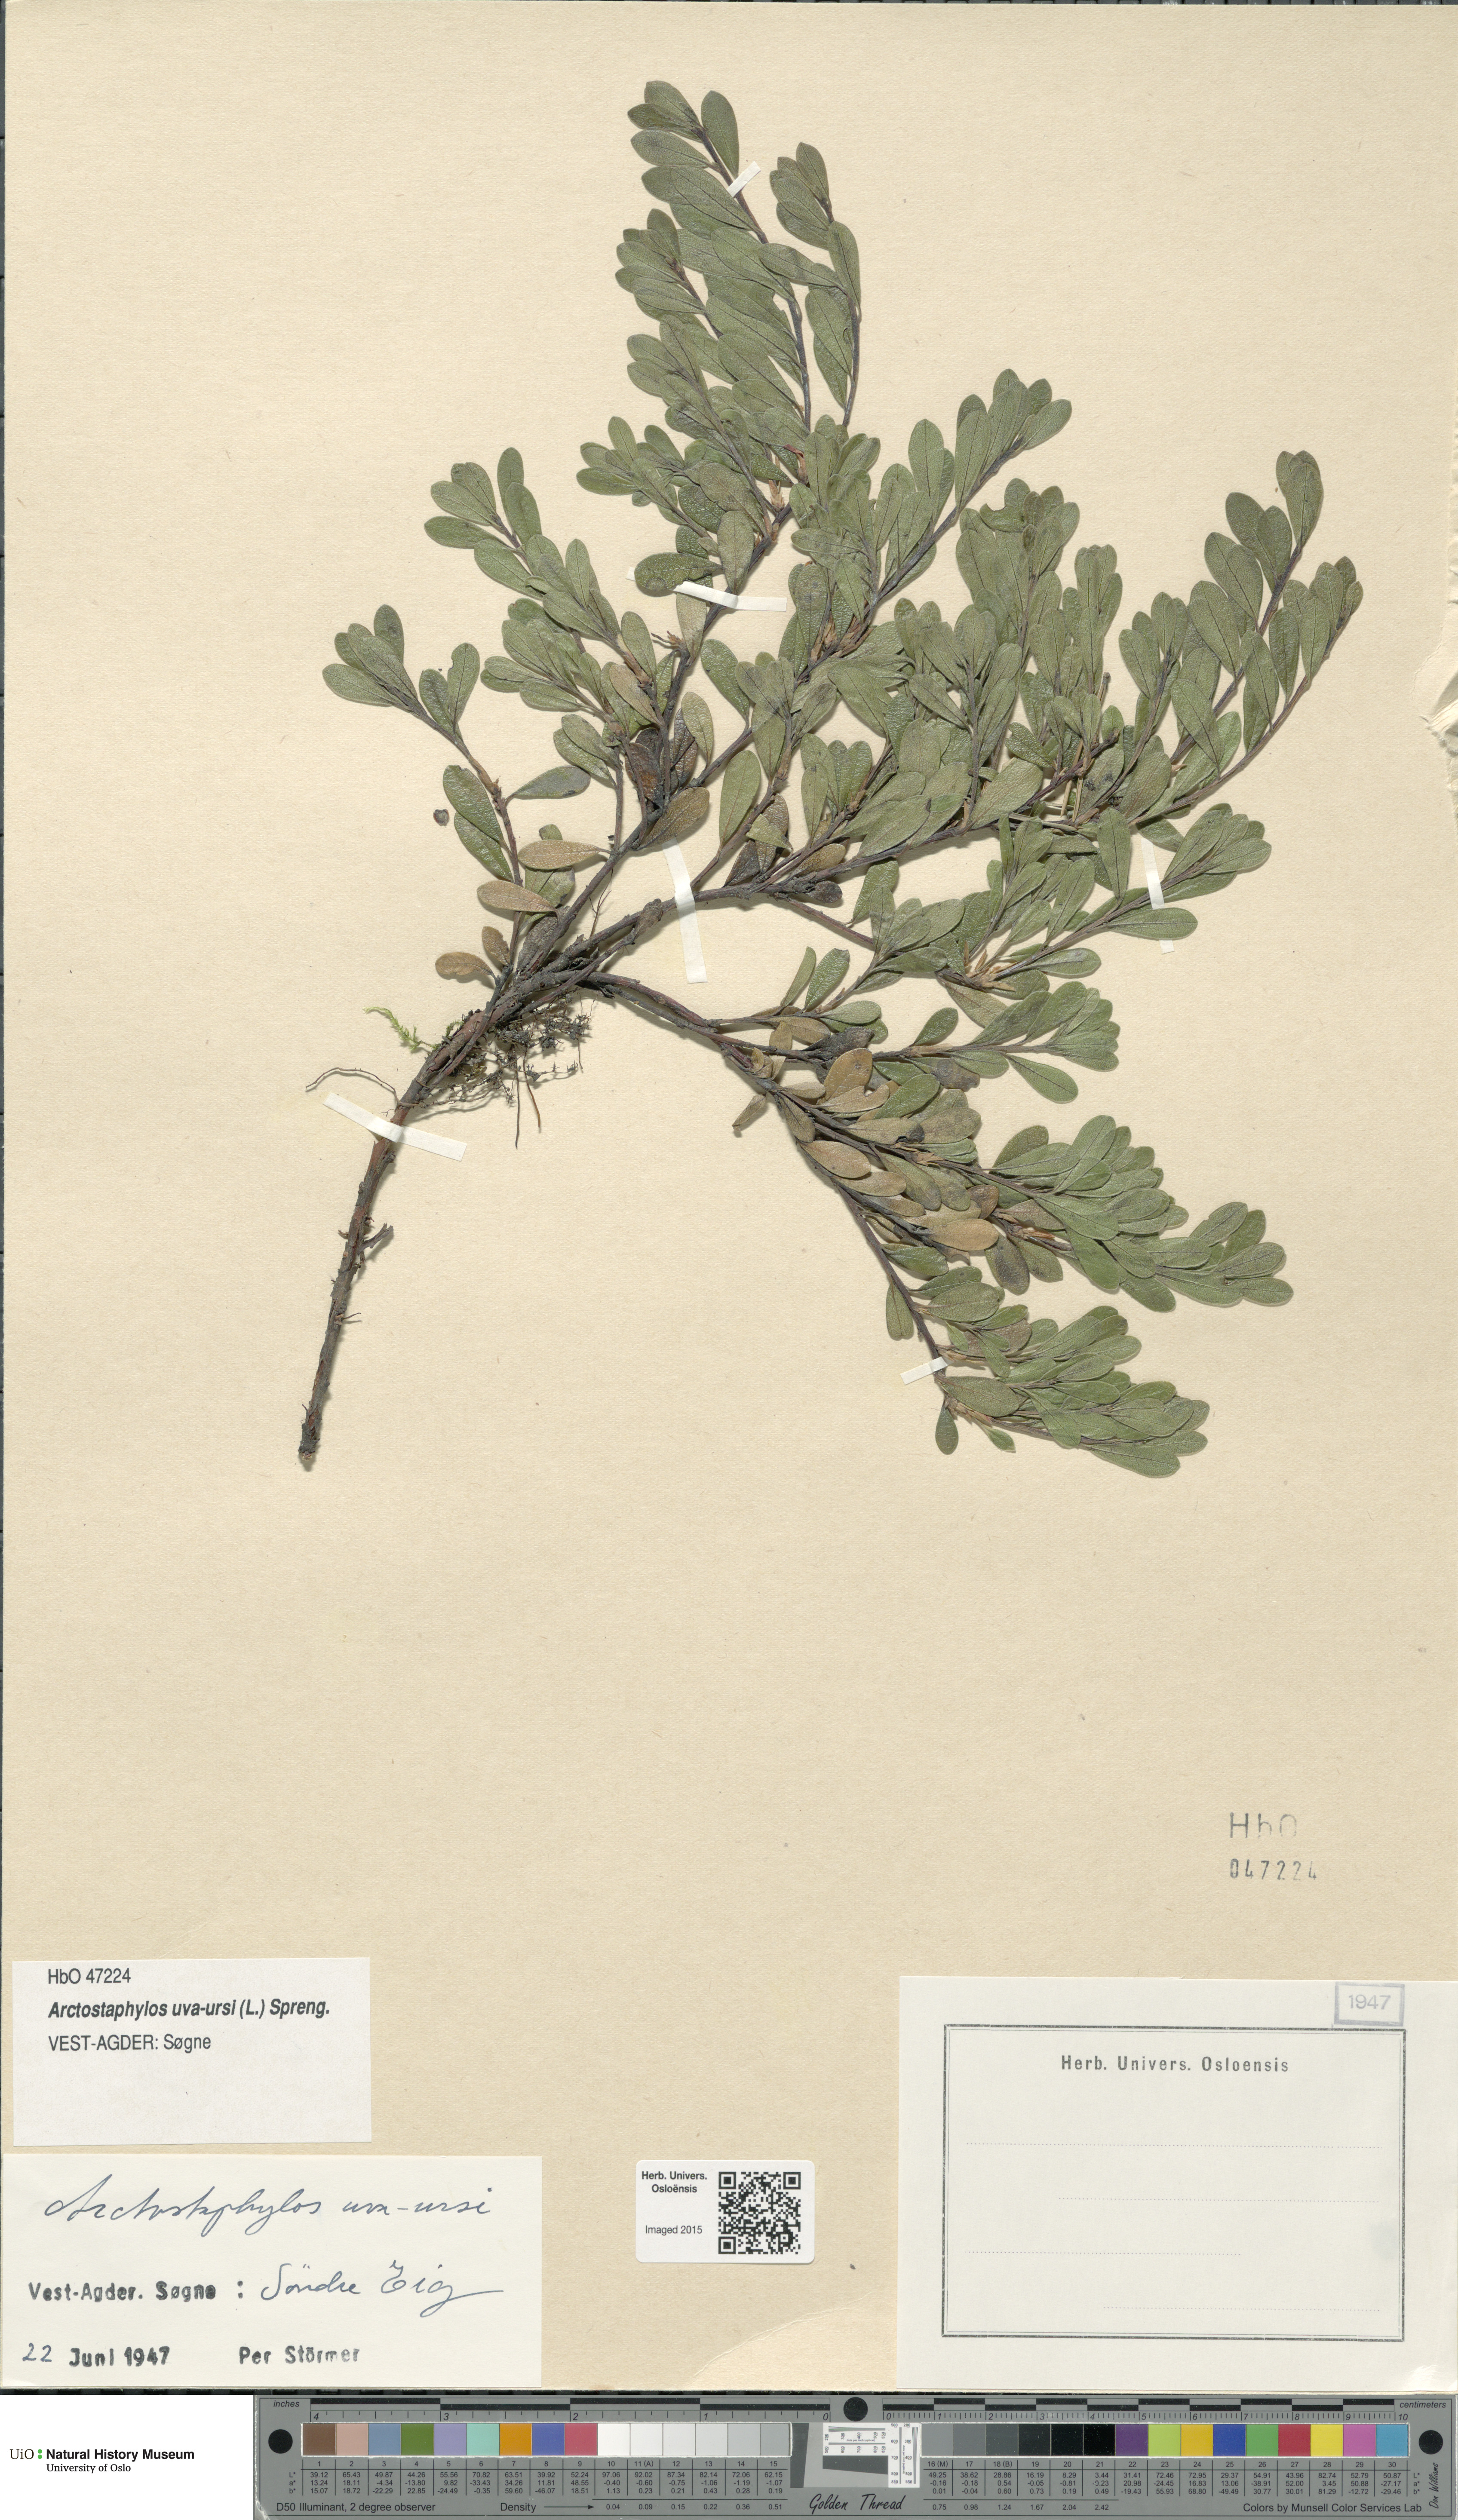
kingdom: Plantae
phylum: Tracheophyta
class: Magnoliopsida
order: Ericales
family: Ericaceae
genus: Arctostaphylos
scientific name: Arctostaphylos uva-ursi
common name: Bearberry
